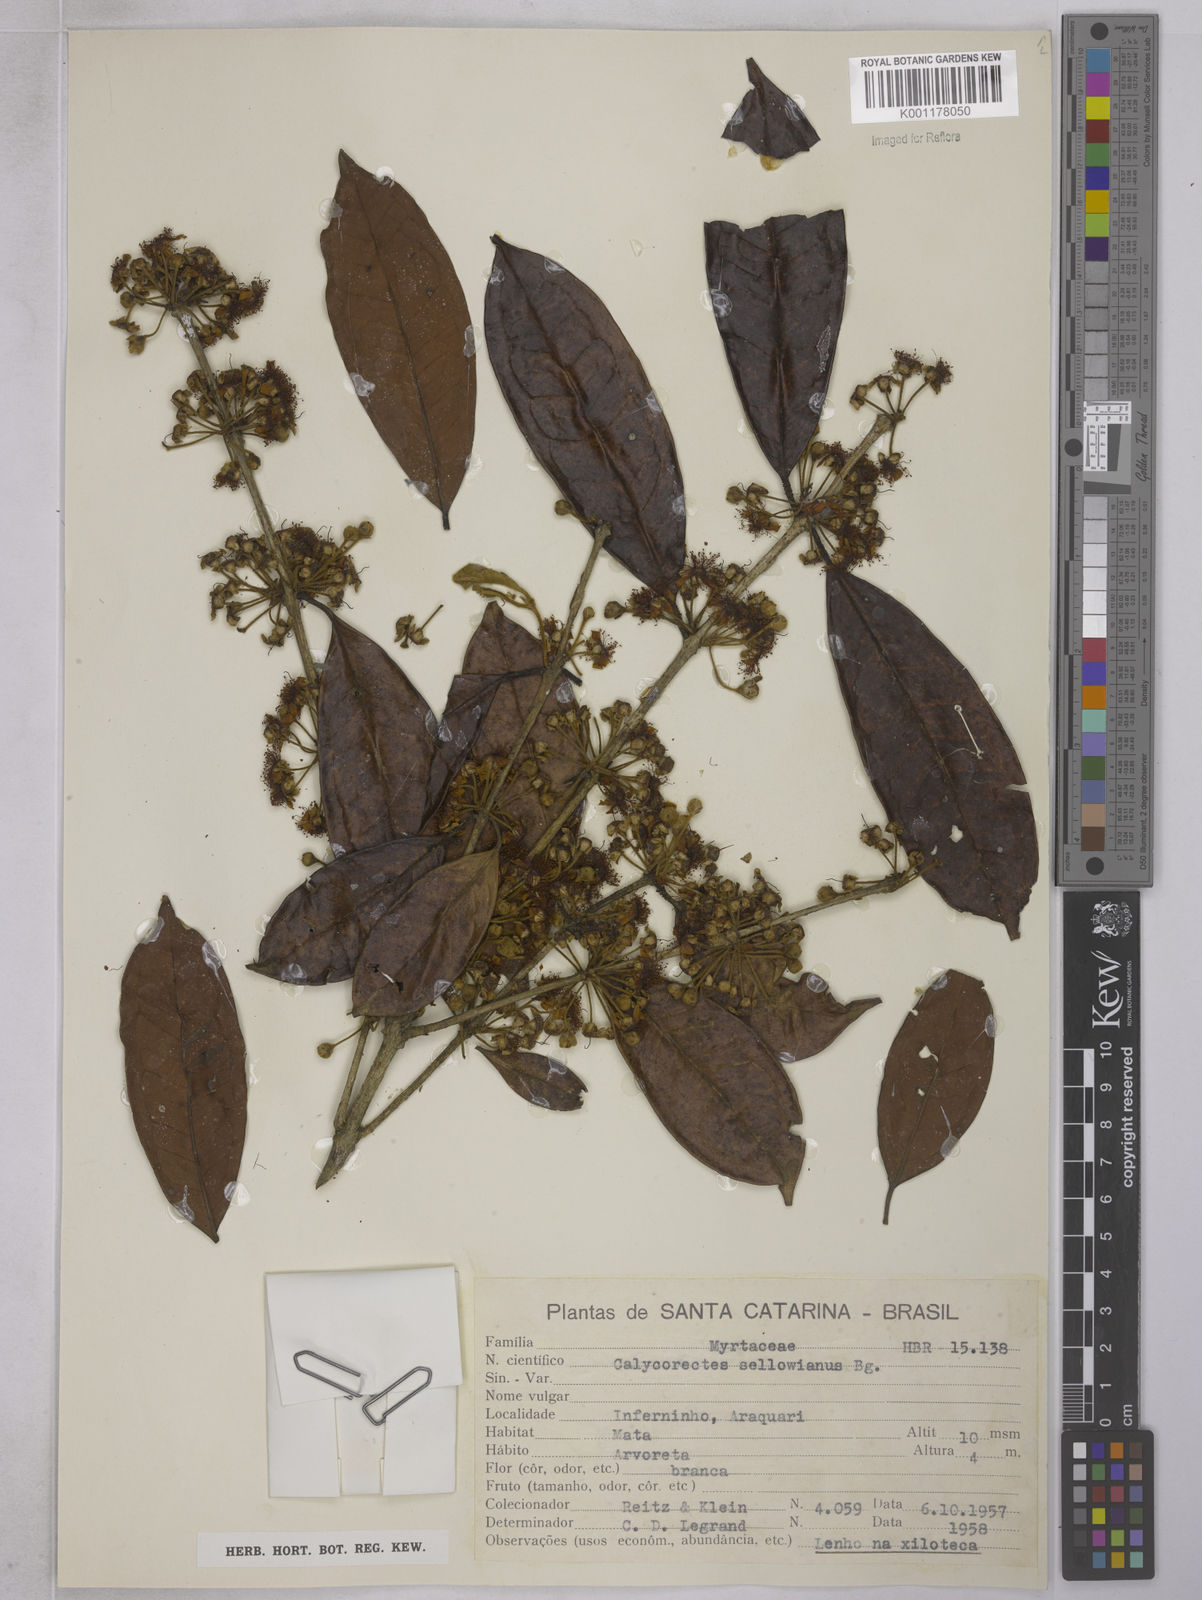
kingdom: Plantae
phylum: Tracheophyta
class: Magnoliopsida
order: Myrtales
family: Myrtaceae
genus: Eugenia
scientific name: Eugenia brevistyla
